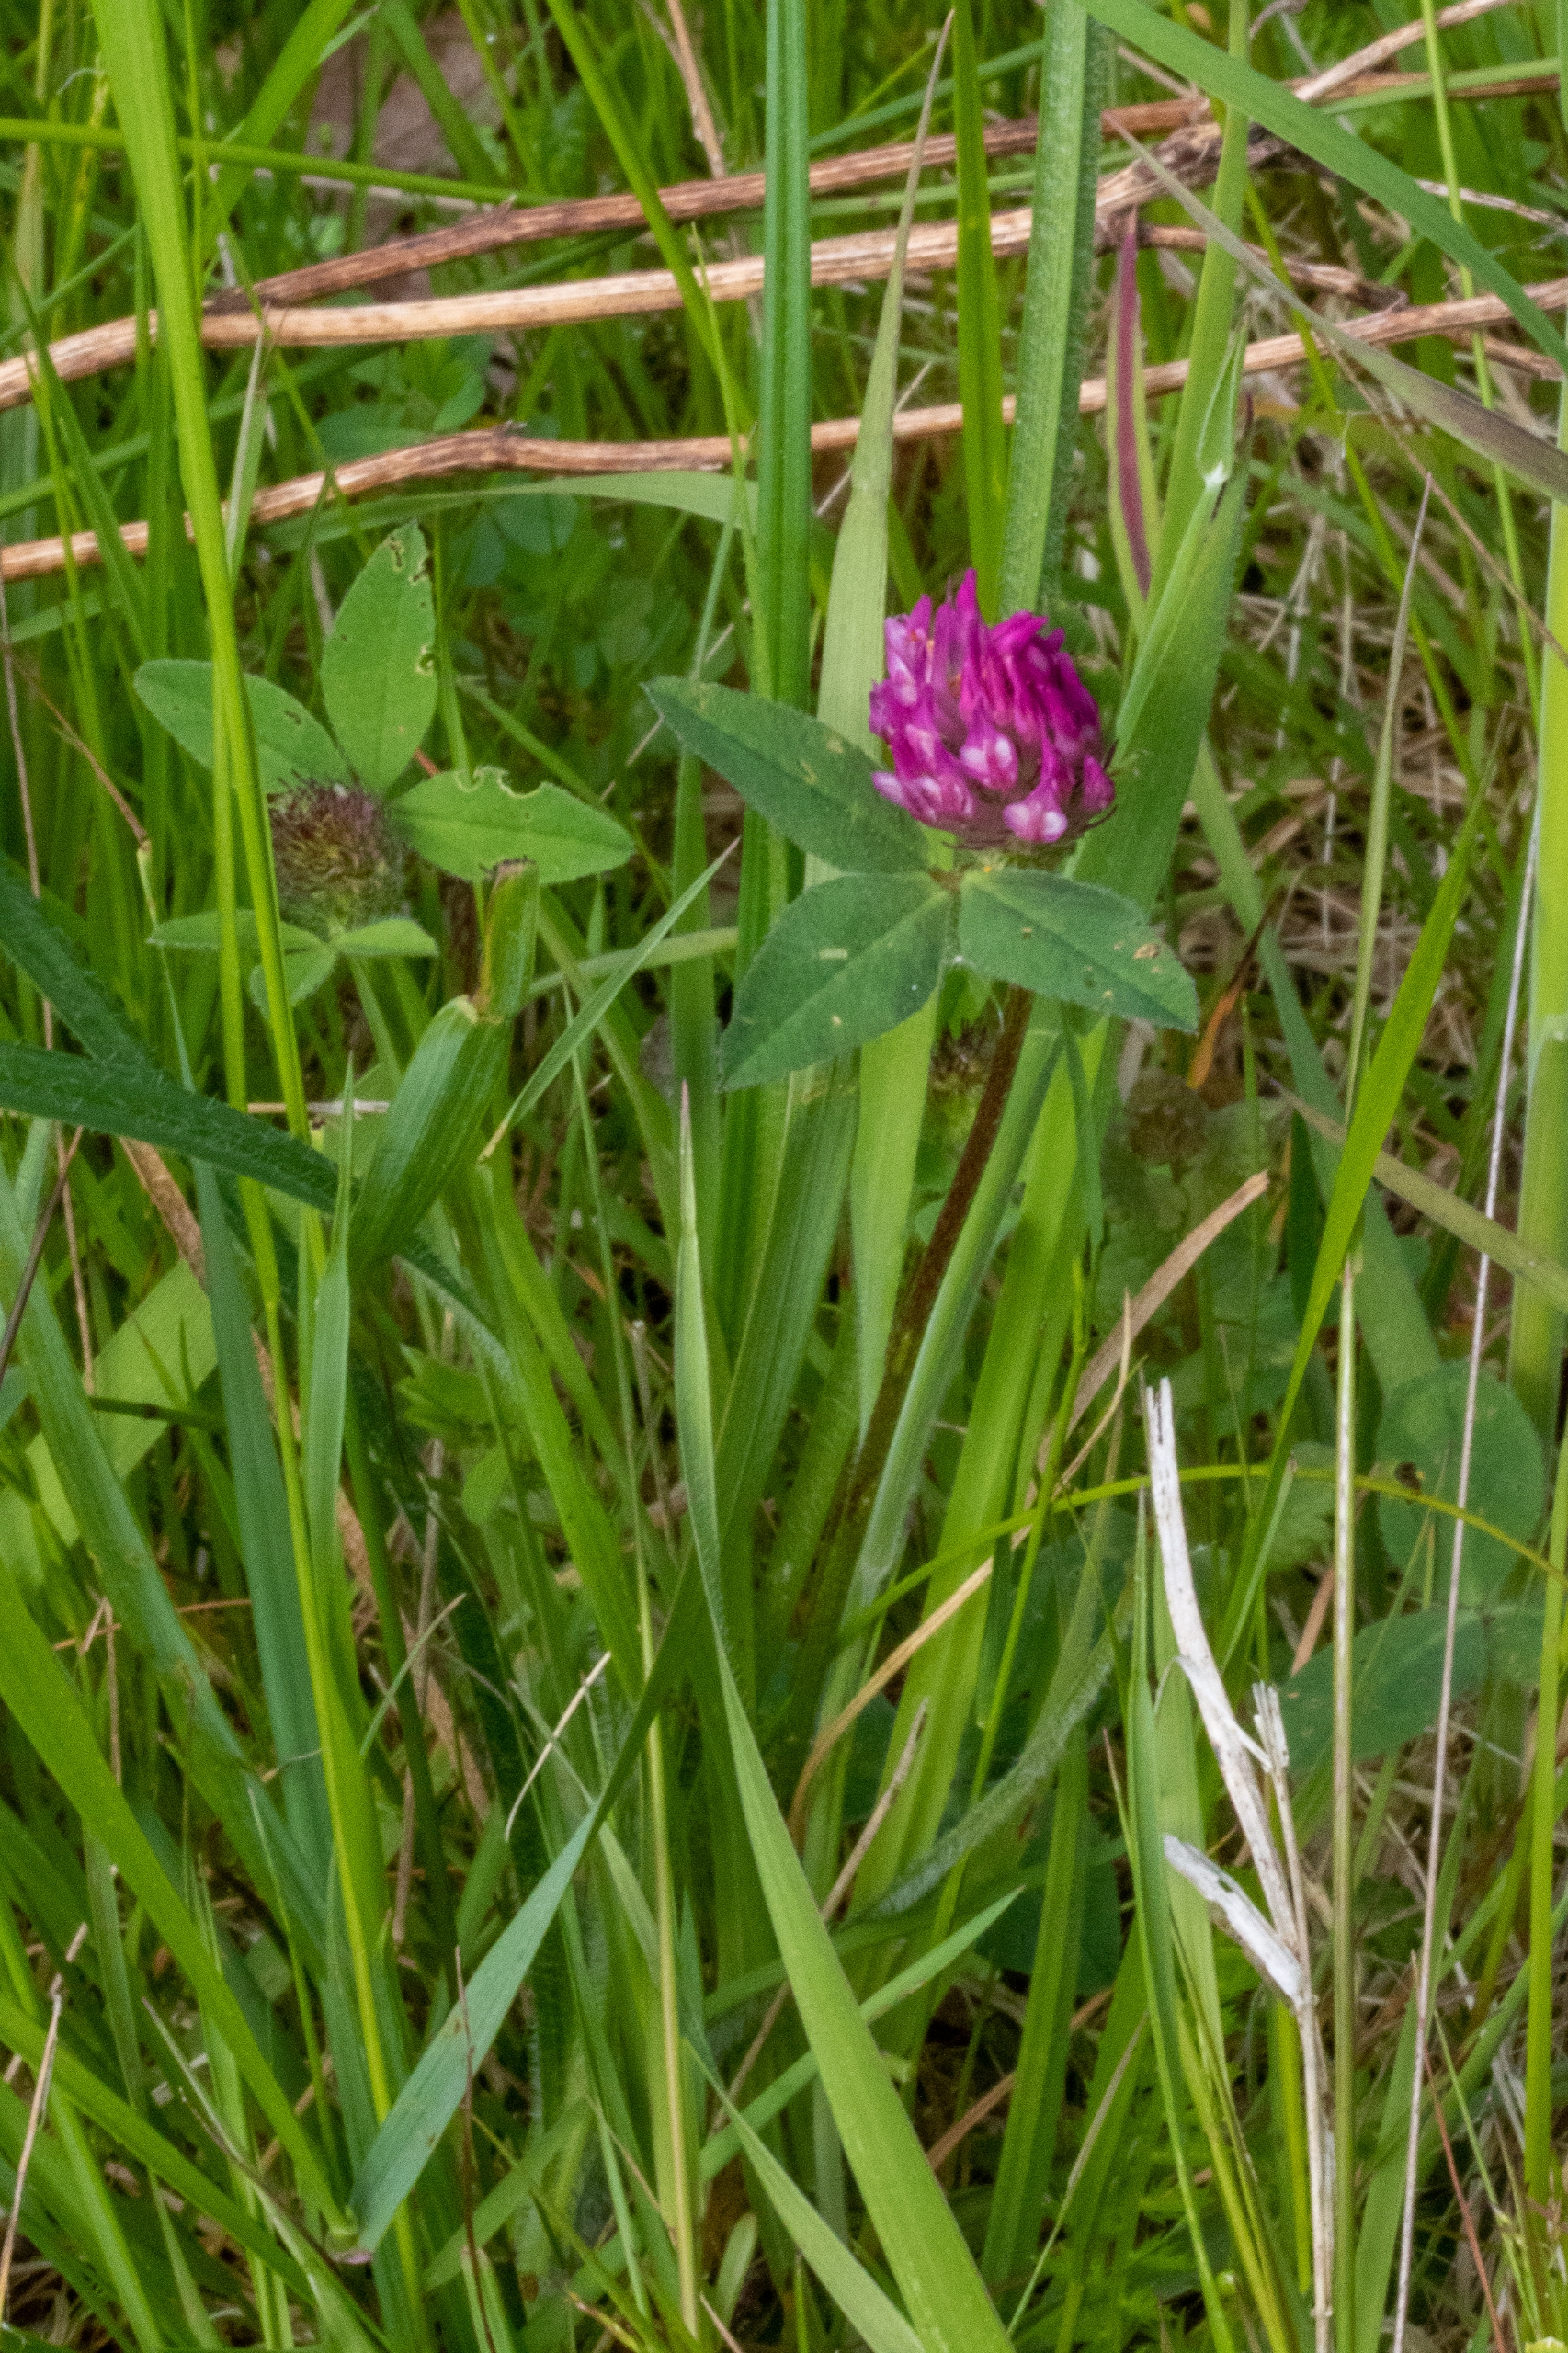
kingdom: Plantae
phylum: Tracheophyta
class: Magnoliopsida
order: Fabales
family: Fabaceae
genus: Trifolium
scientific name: Trifolium medium
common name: Bugtet kløver
